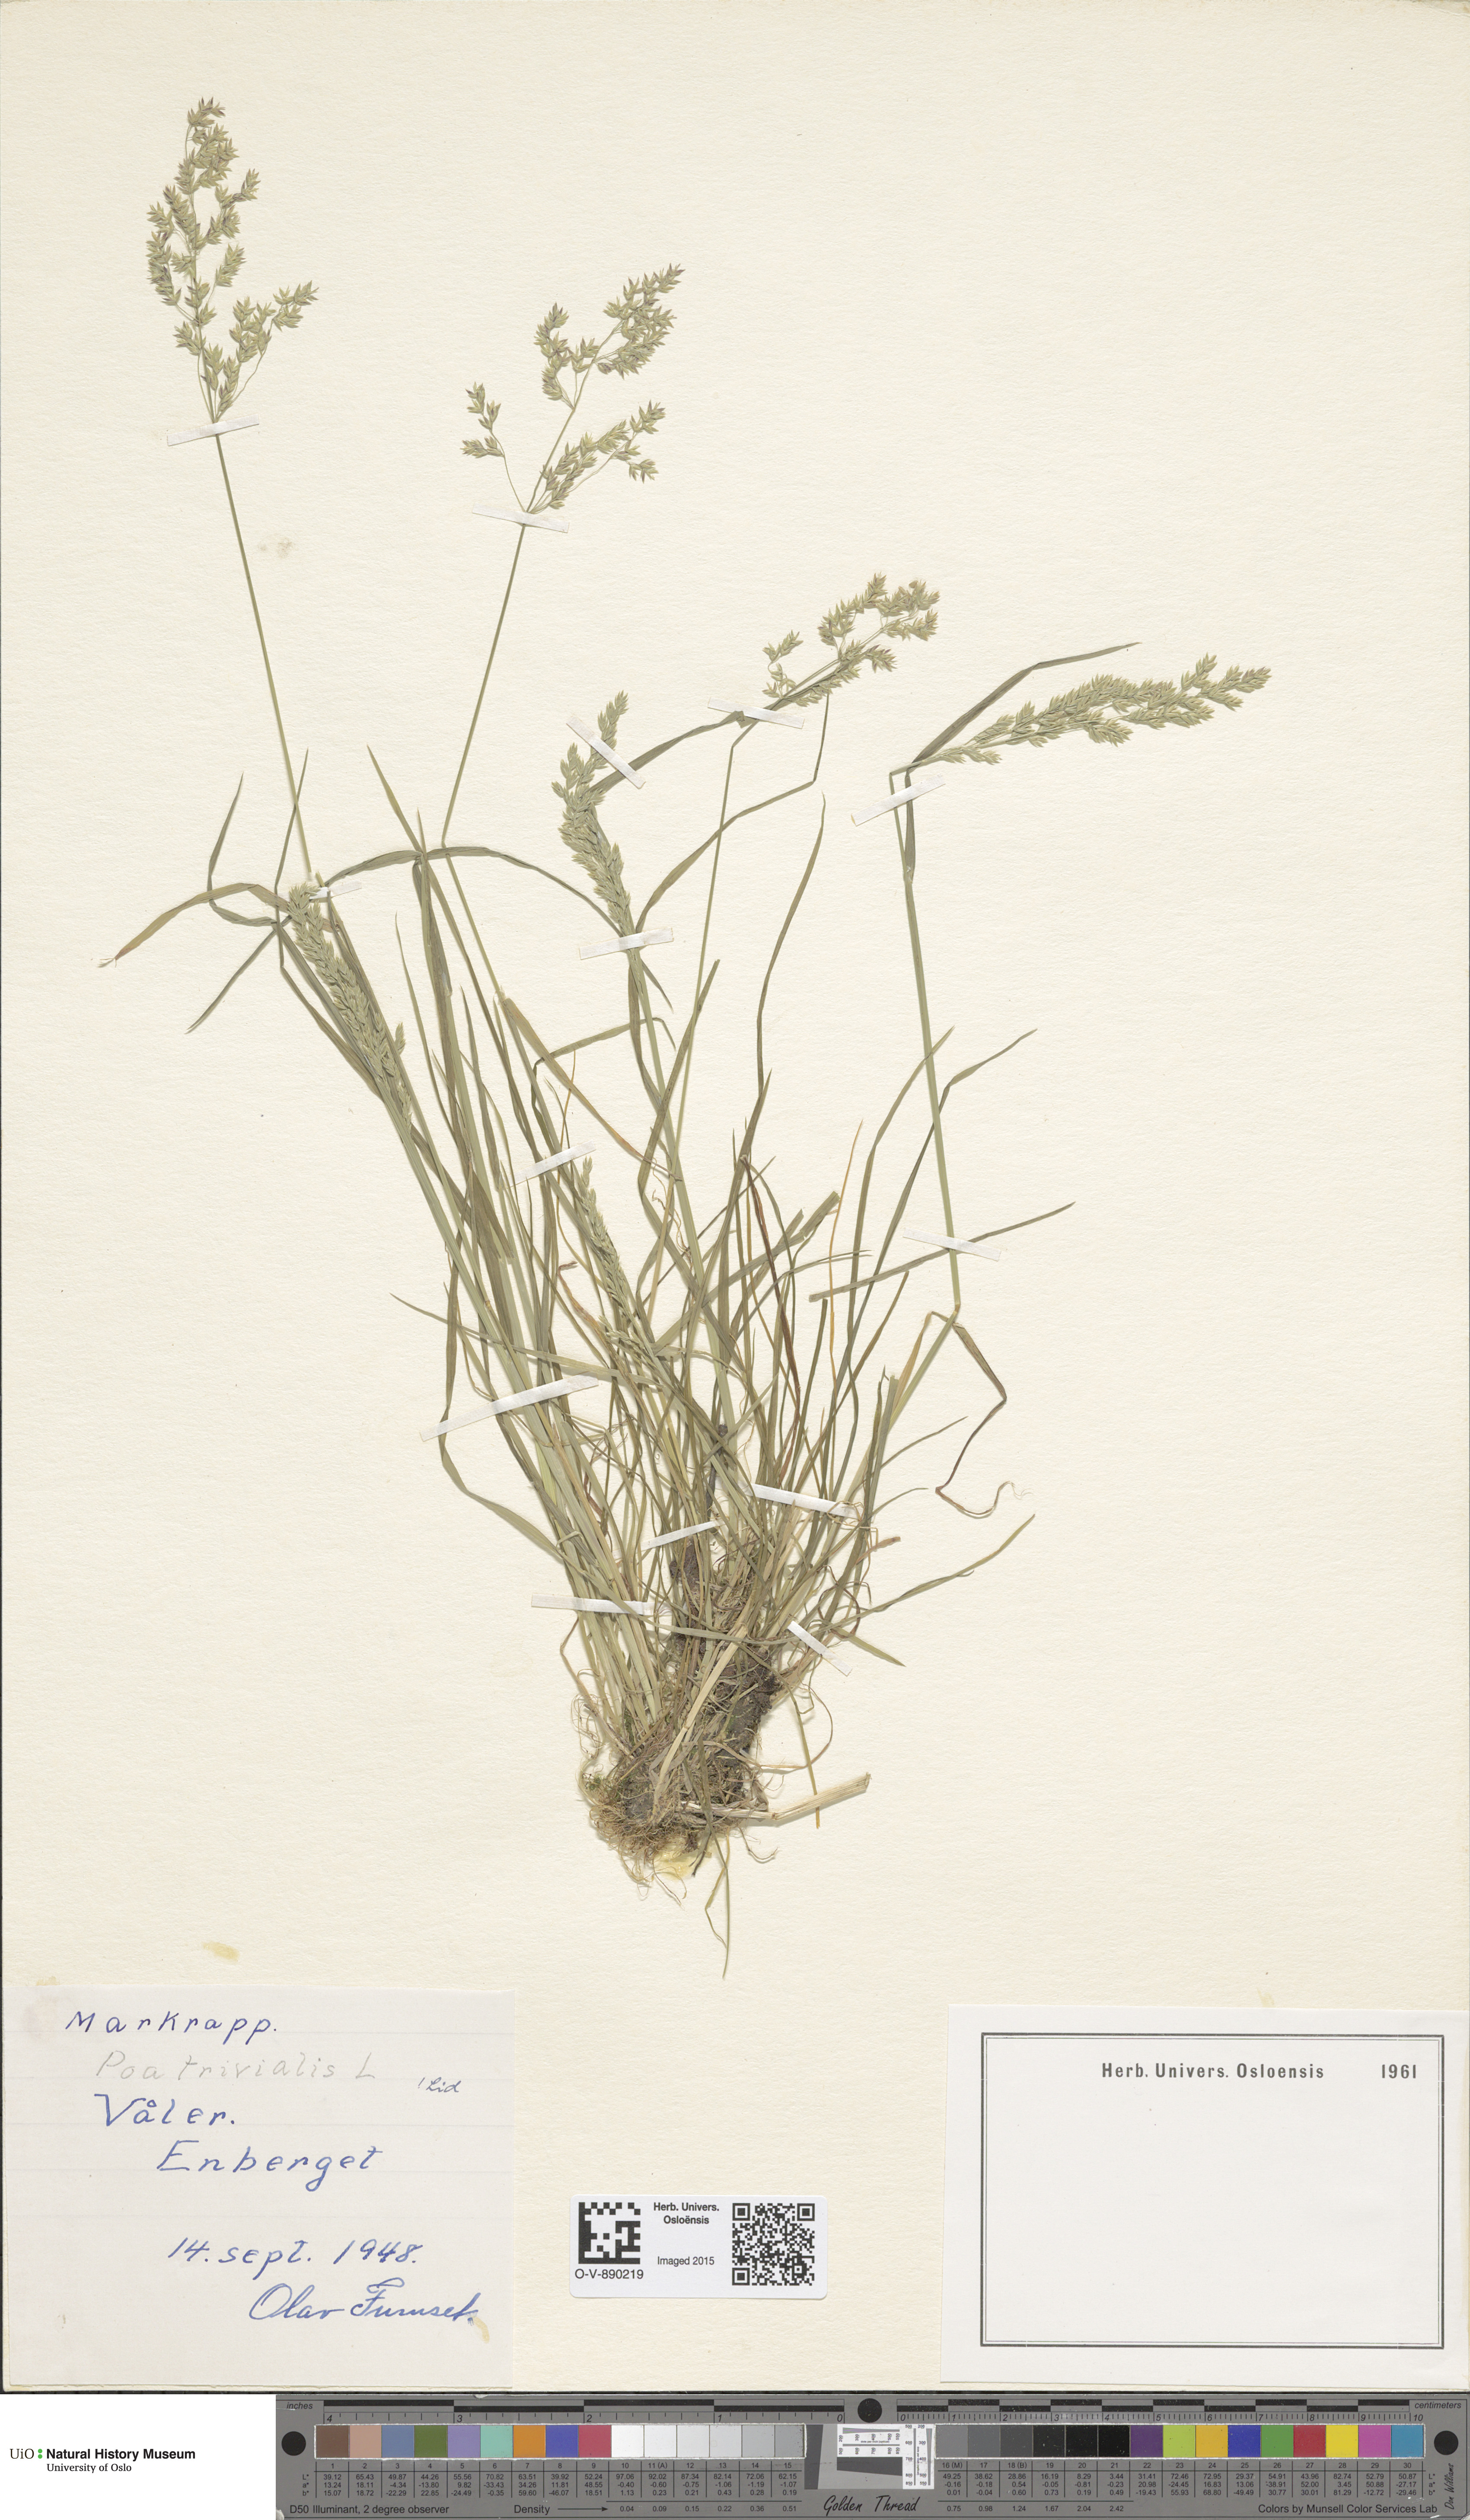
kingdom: Plantae
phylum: Tracheophyta
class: Liliopsida
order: Poales
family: Poaceae
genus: Poa
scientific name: Poa trivialis
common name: Rough bluegrass
